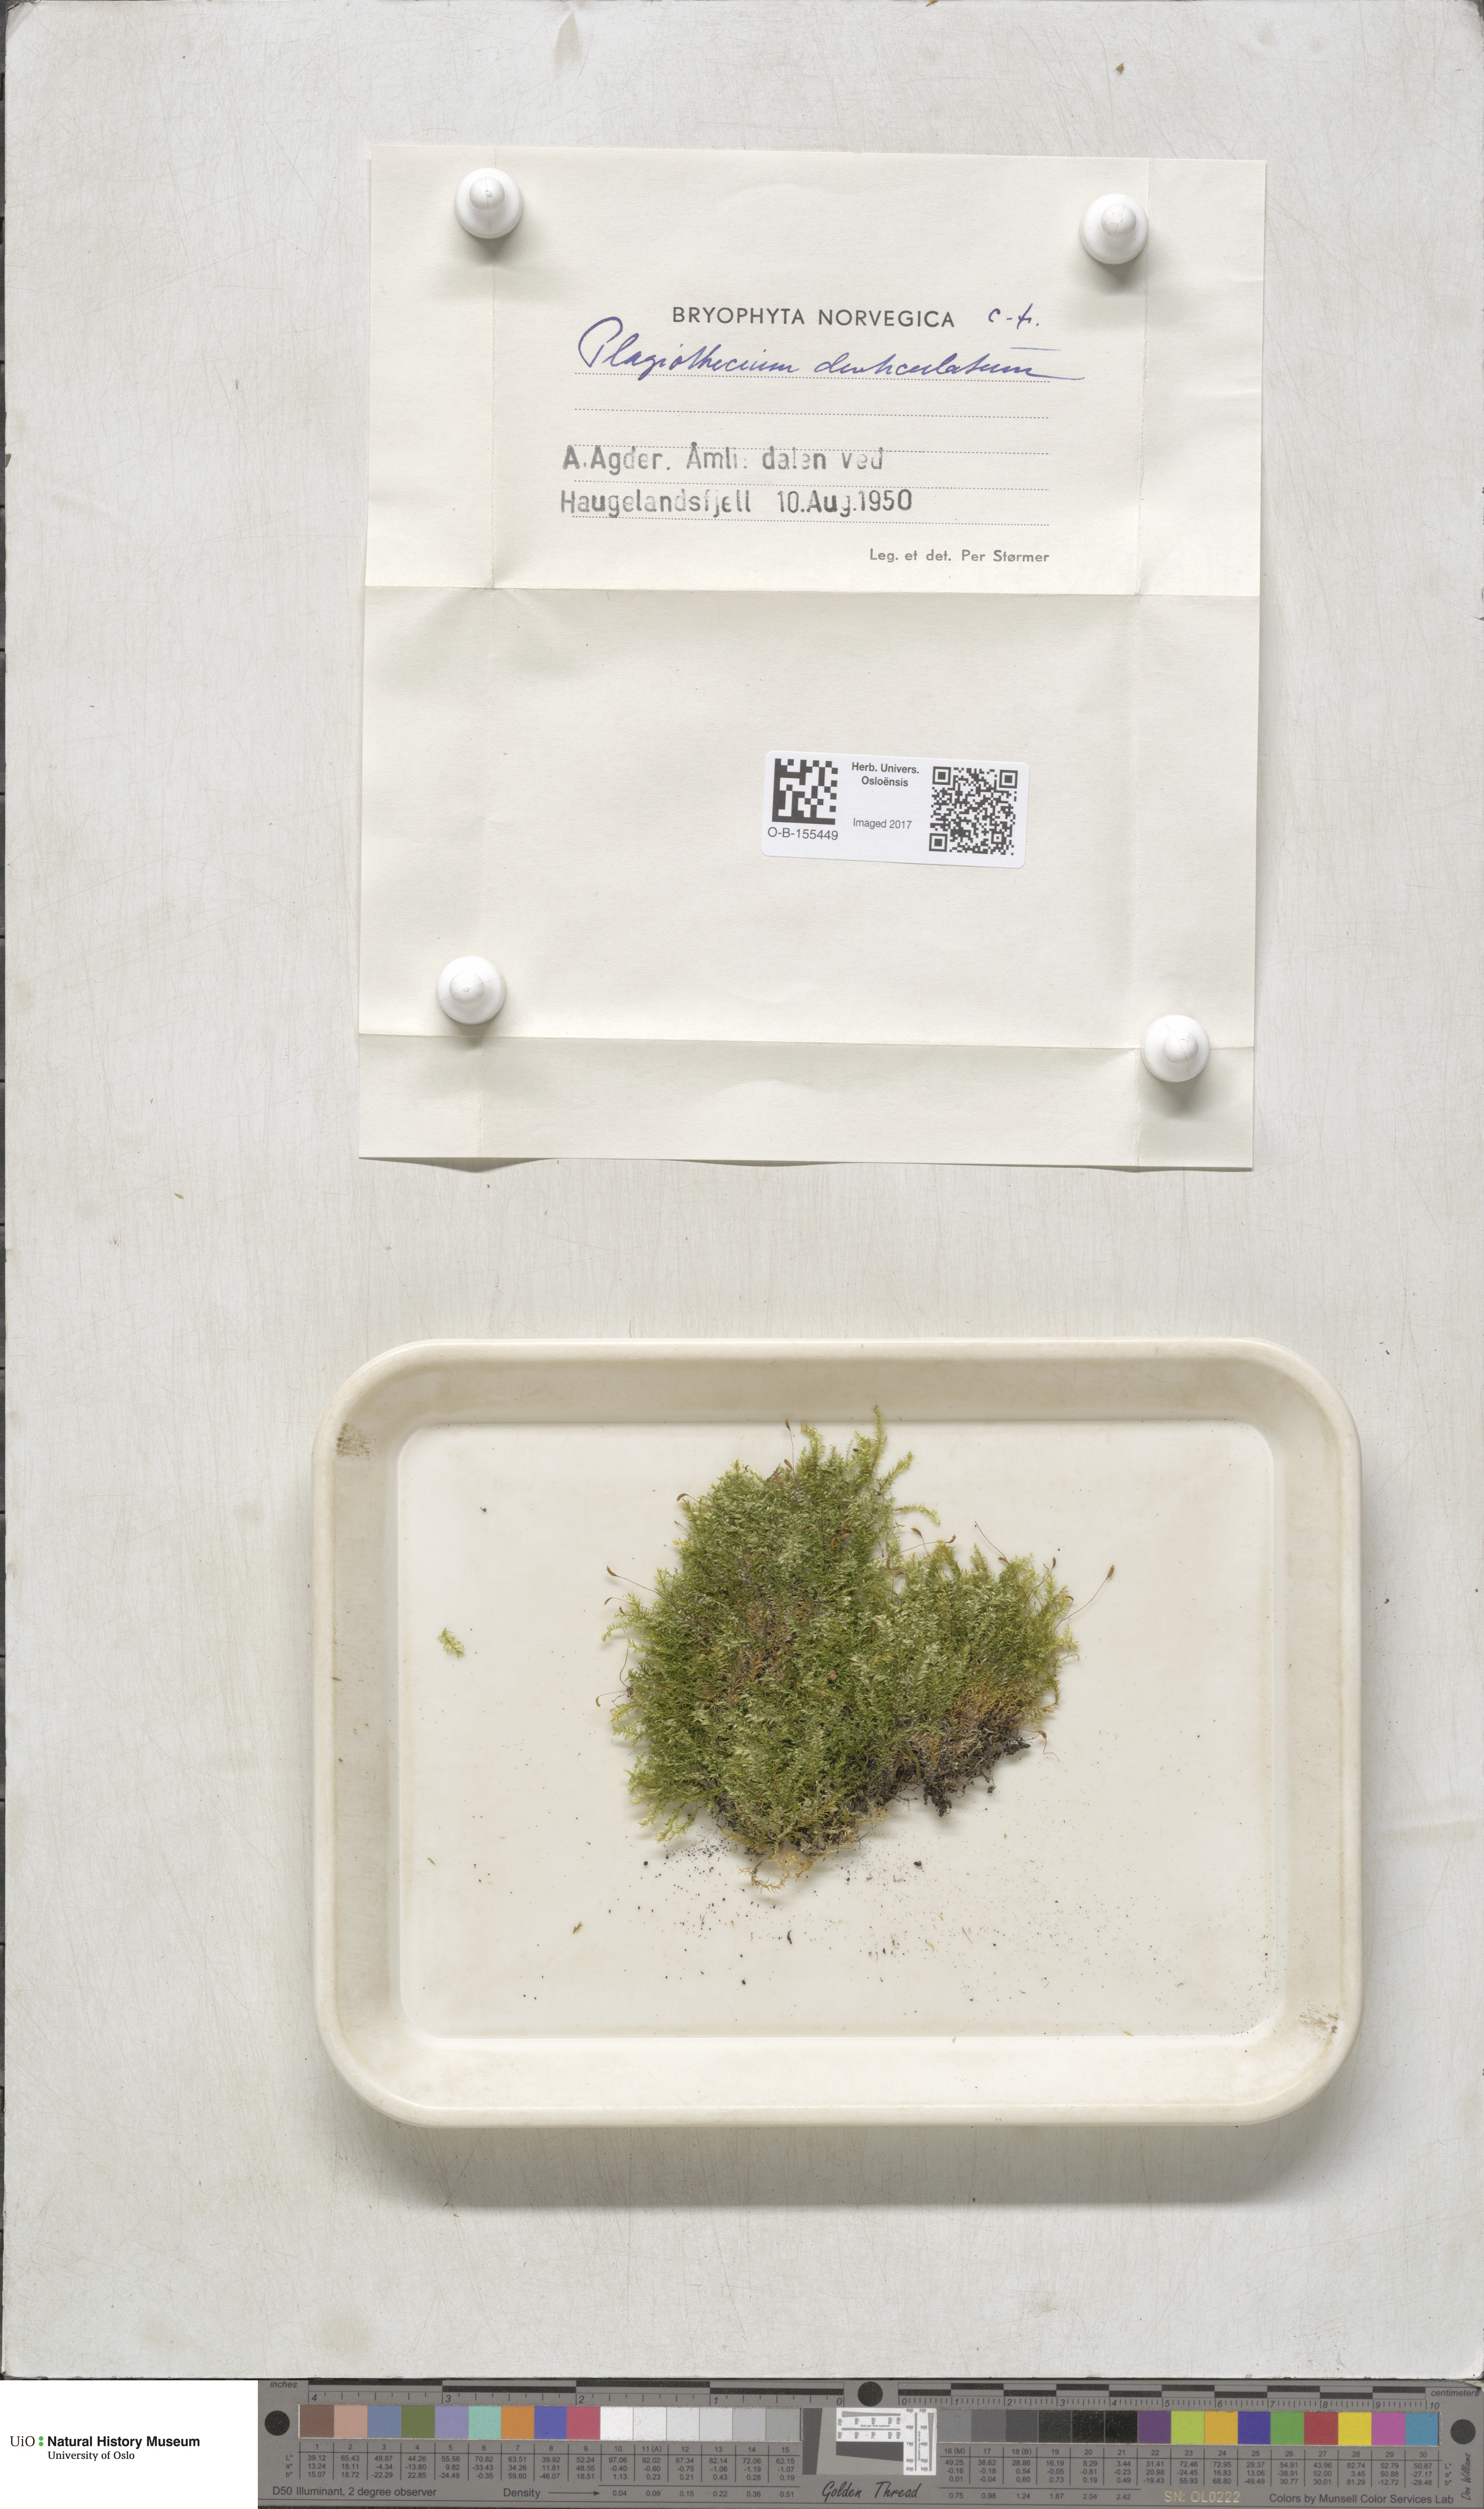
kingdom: Plantae
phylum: Bryophyta
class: Bryopsida
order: Hypnales
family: Plagiotheciaceae
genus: Plagiothecium
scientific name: Plagiothecium denticulatum
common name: Dented silk moss
